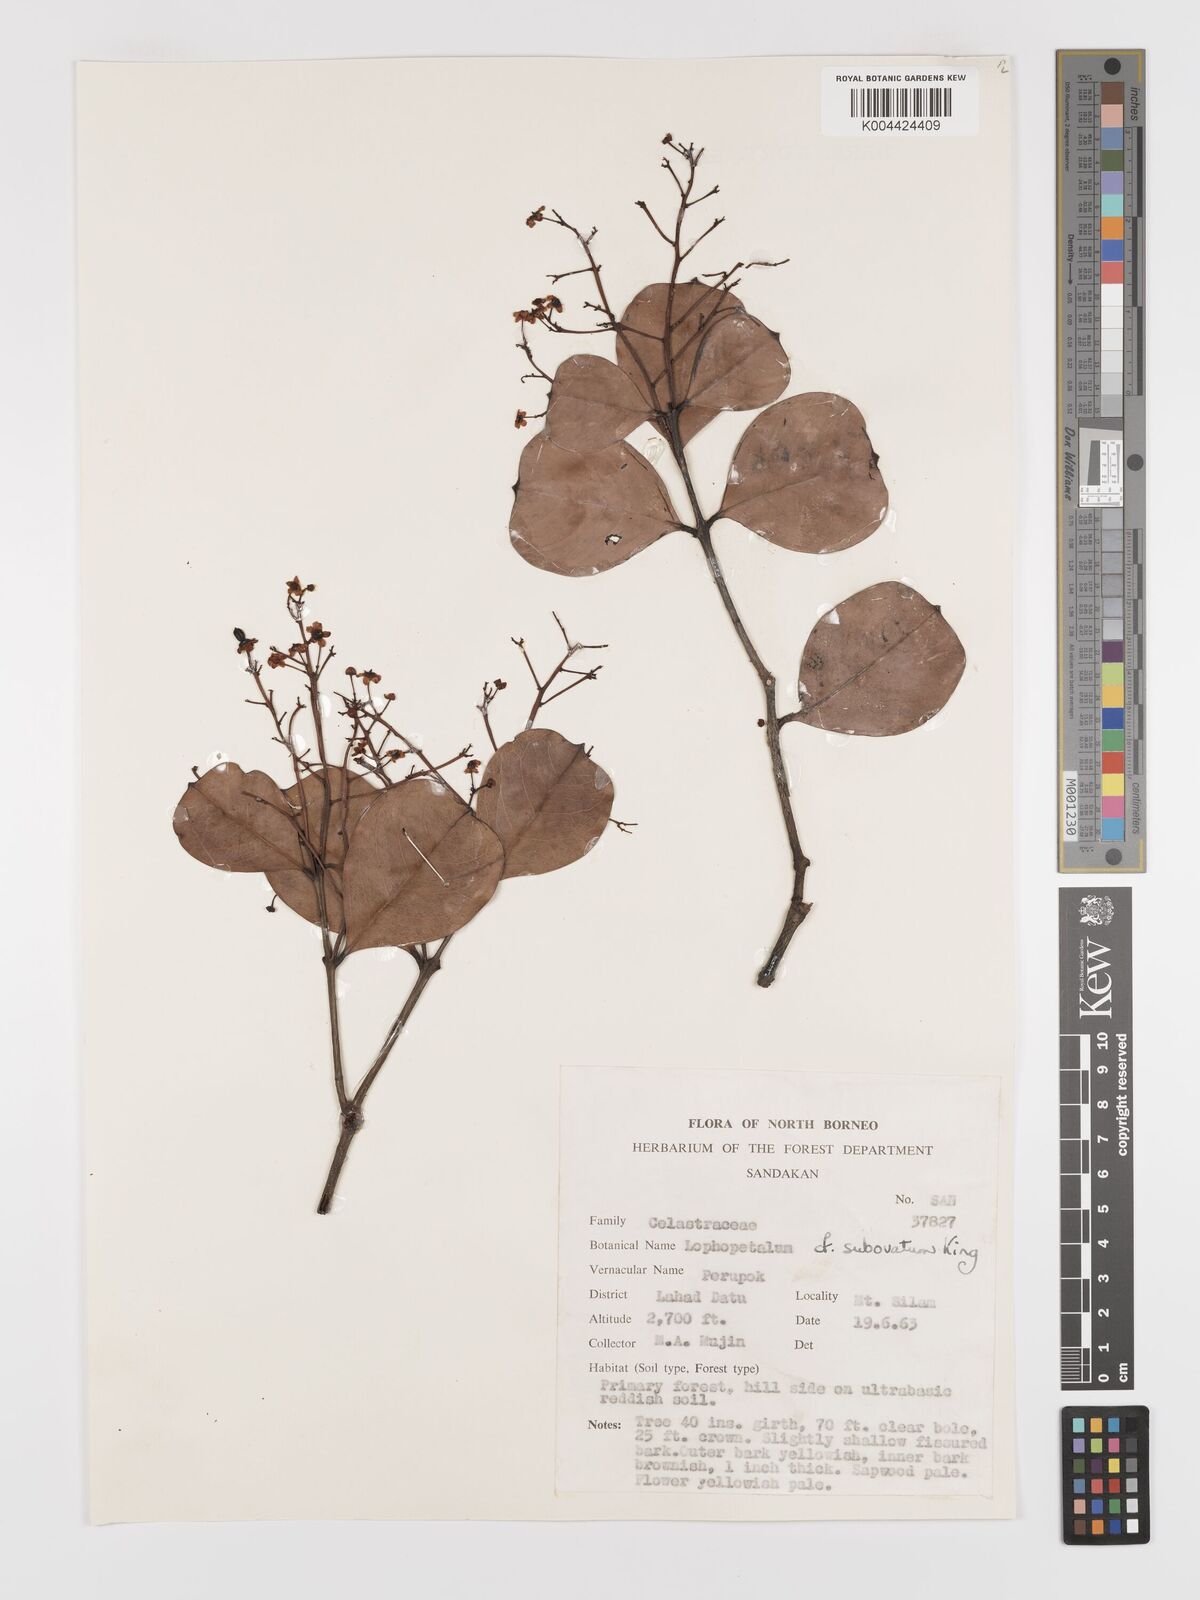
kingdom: Plantae
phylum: Tracheophyta
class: Magnoliopsida
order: Celastrales
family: Celastraceae
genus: Lophopetalum
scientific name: Lophopetalum
